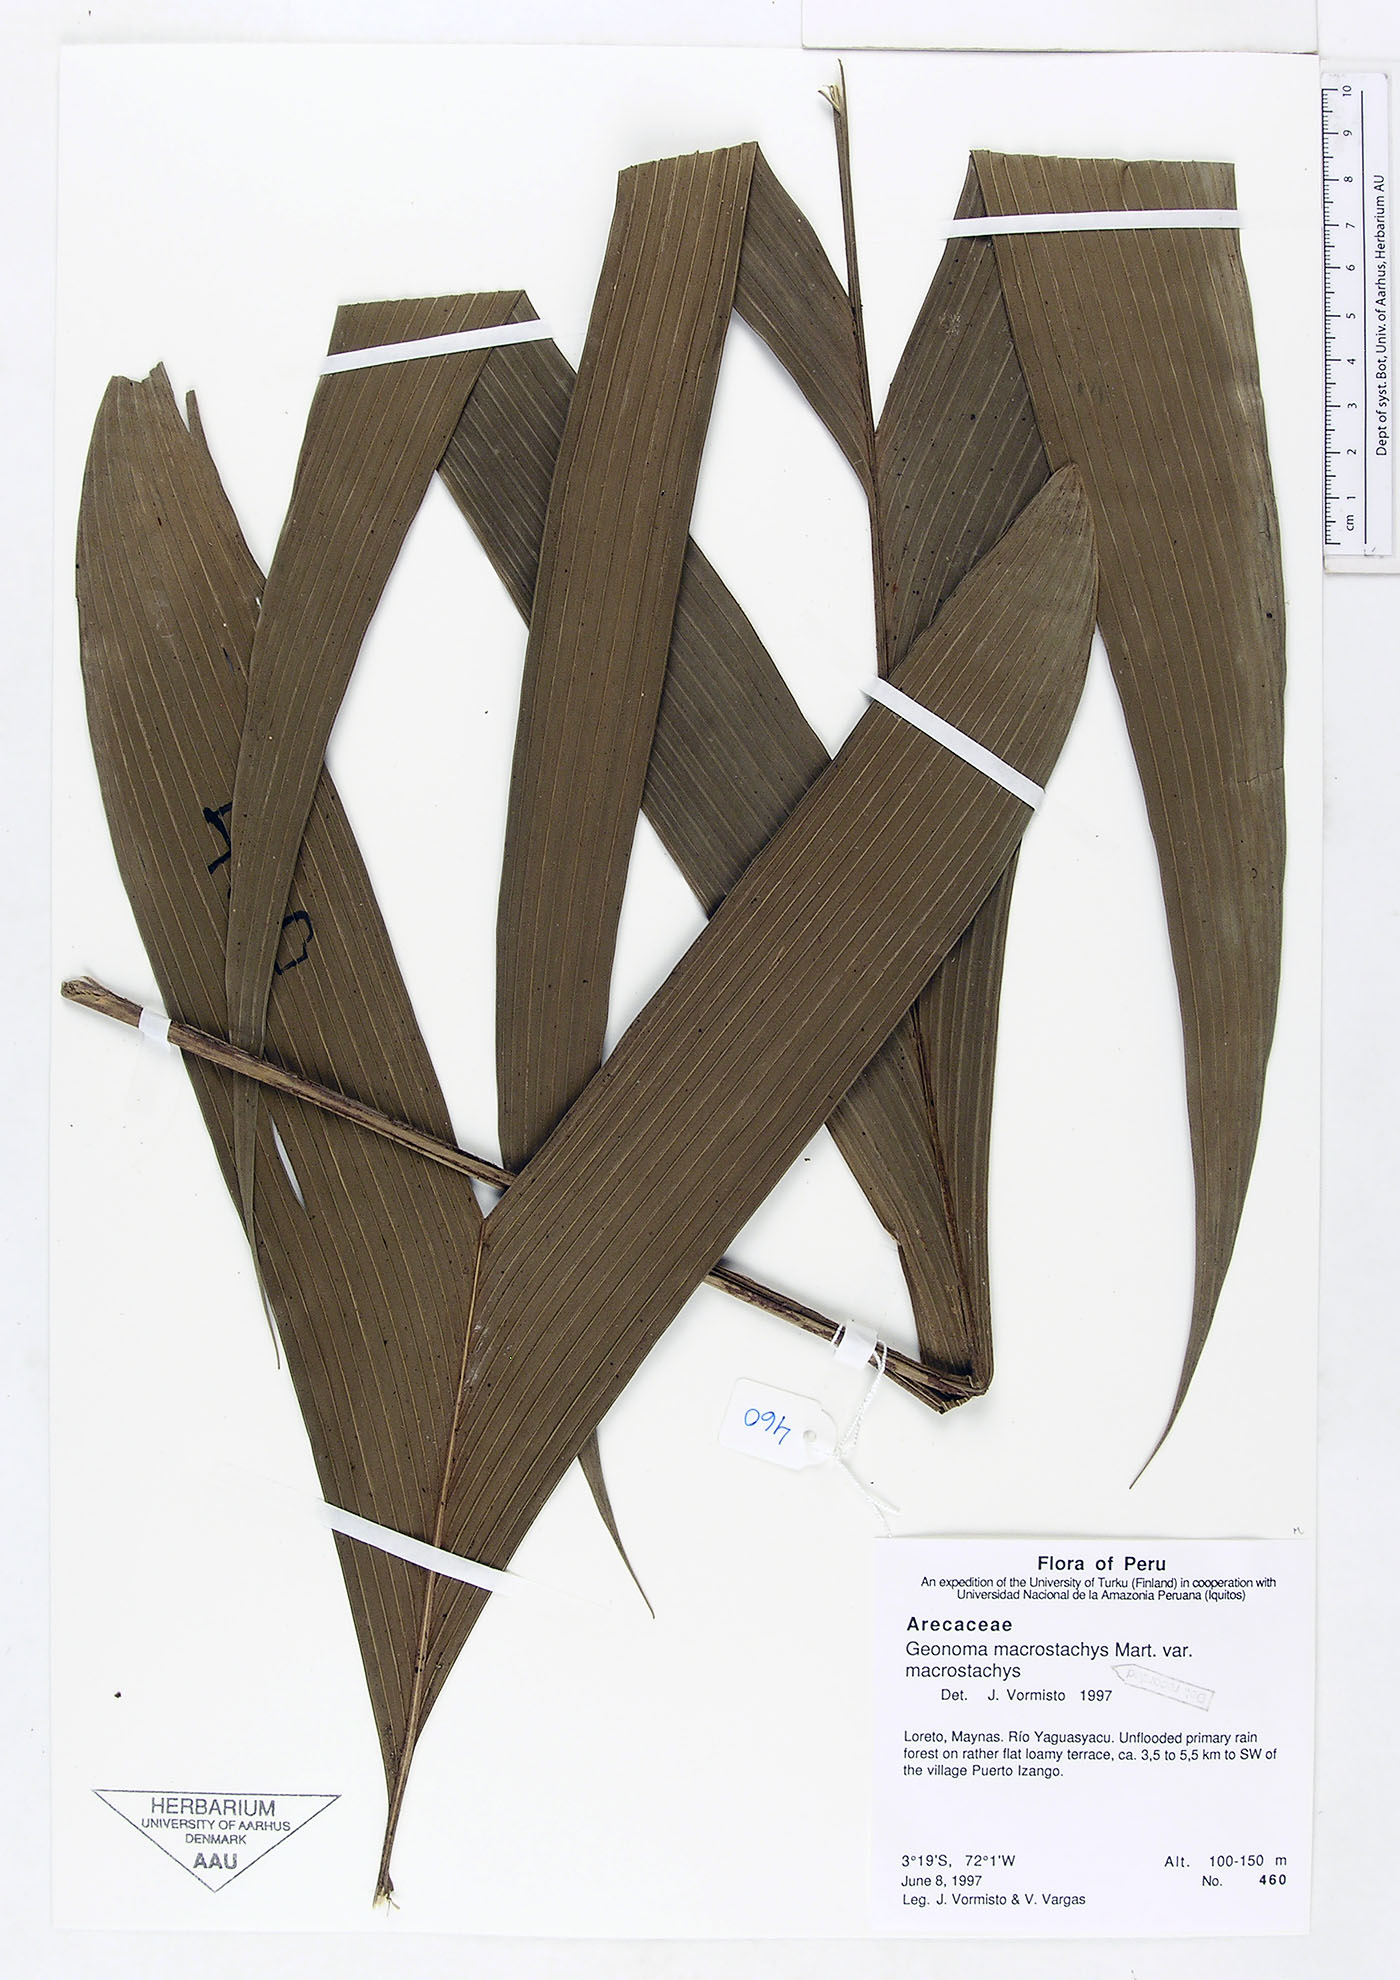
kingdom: Plantae
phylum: Tracheophyta
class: Liliopsida
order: Arecales
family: Arecaceae
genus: Geonoma
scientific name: Geonoma macrostachys
